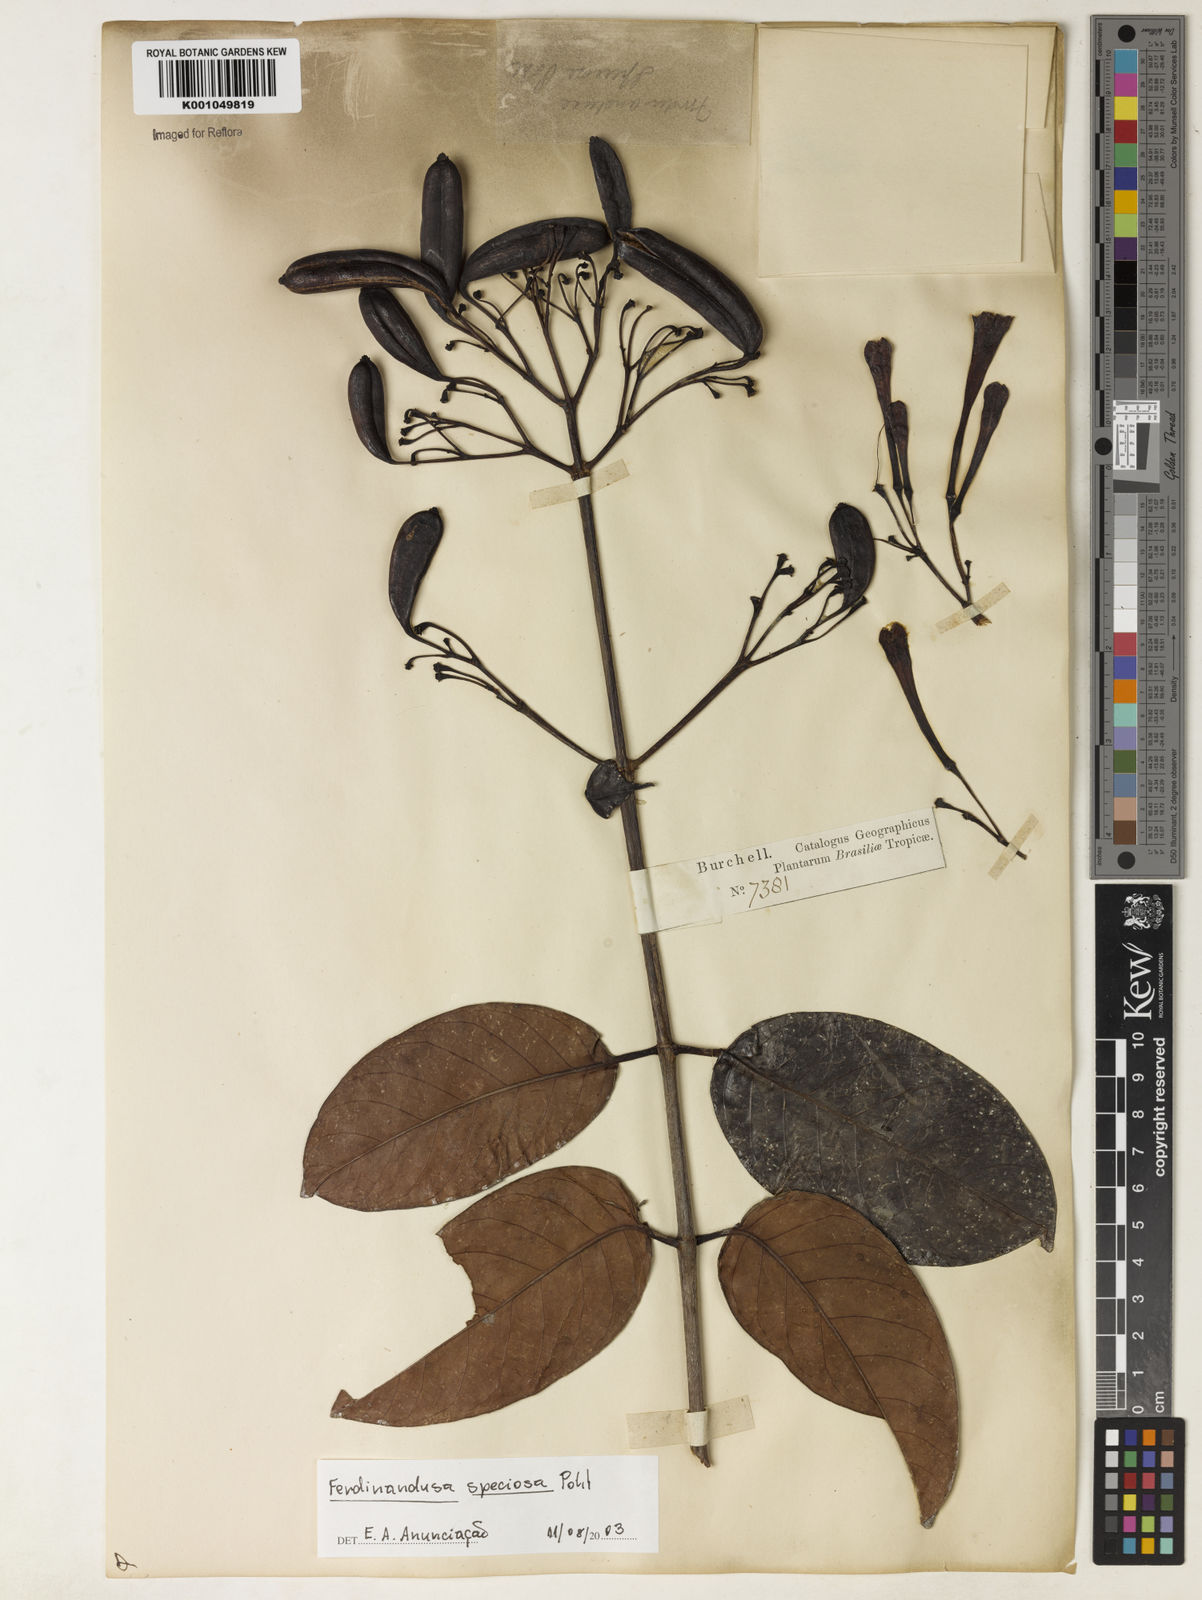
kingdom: Plantae
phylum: Tracheophyta
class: Magnoliopsida
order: Gentianales
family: Rubiaceae
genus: Ferdinandusa
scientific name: Ferdinandusa speciosa
